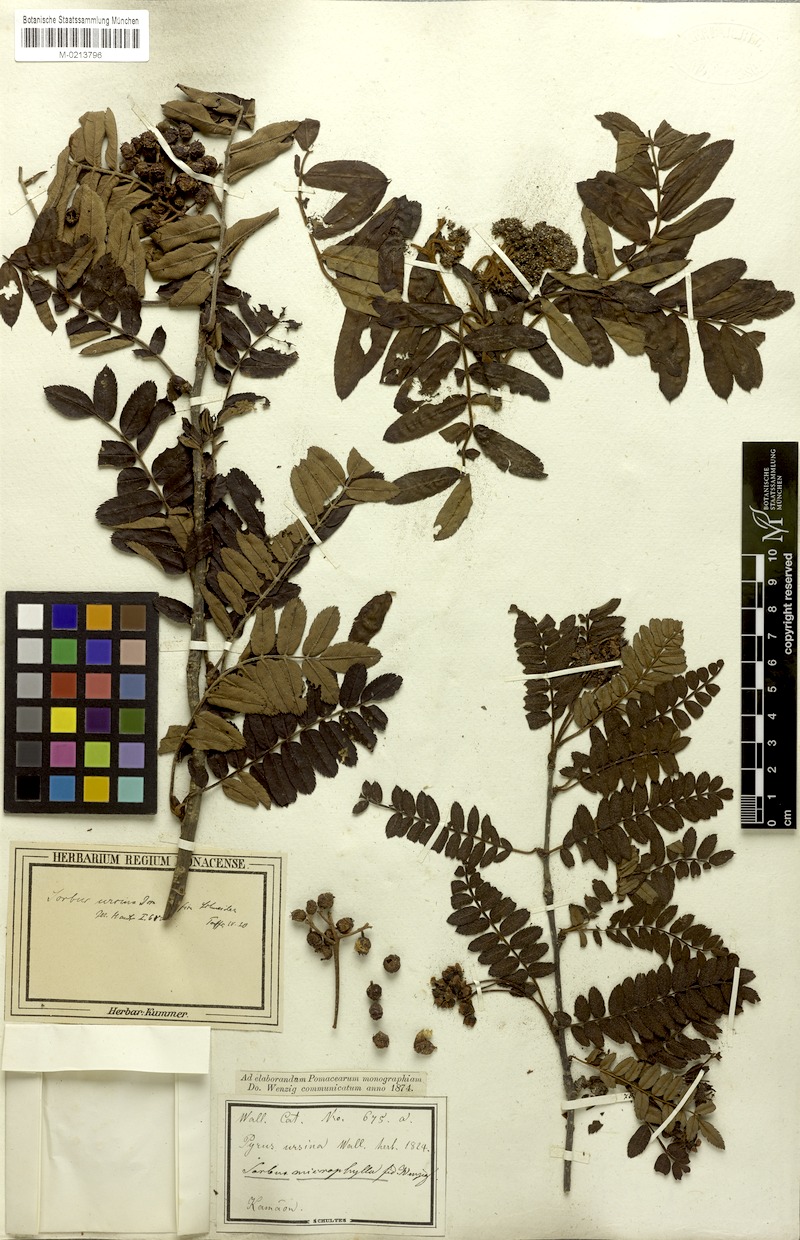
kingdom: Plantae
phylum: Tracheophyta
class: Magnoliopsida
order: Rosales
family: Rosaceae
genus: Sorbus
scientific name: Sorbus foliolosa
